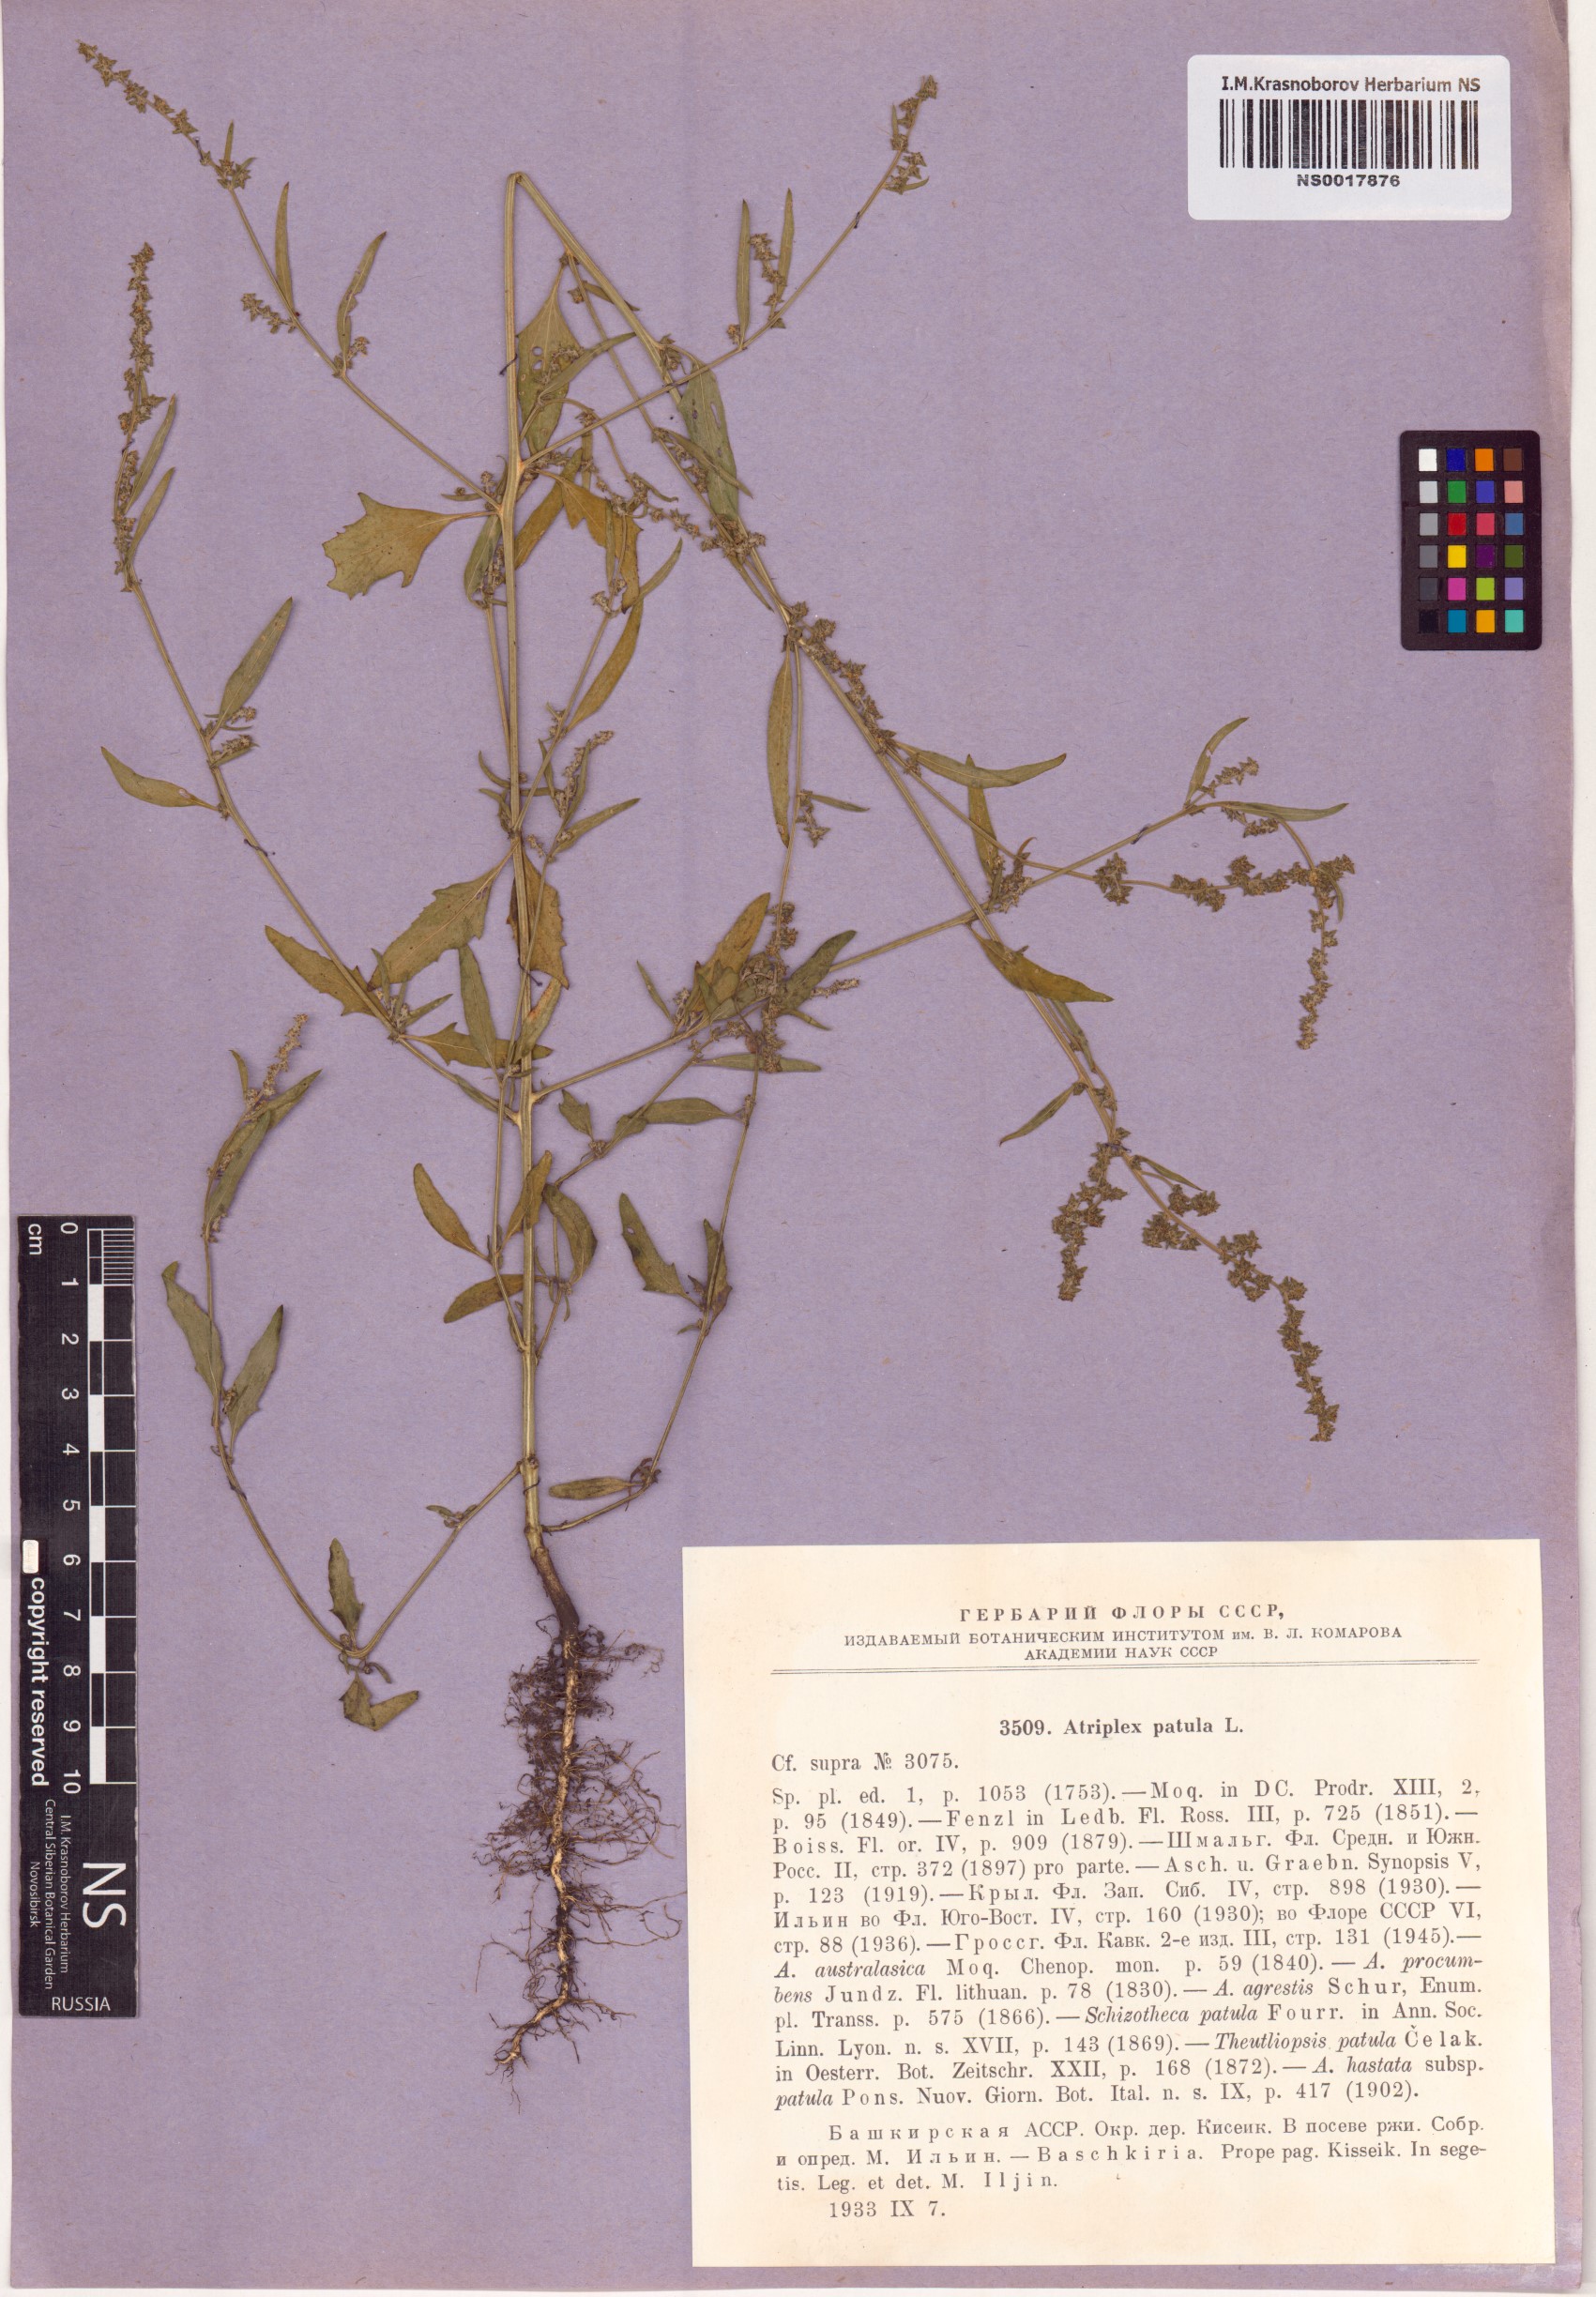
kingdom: Plantae
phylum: Tracheophyta
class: Magnoliopsida
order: Caryophyllales
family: Amaranthaceae
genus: Atriplex
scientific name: Atriplex patula
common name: Common orache
